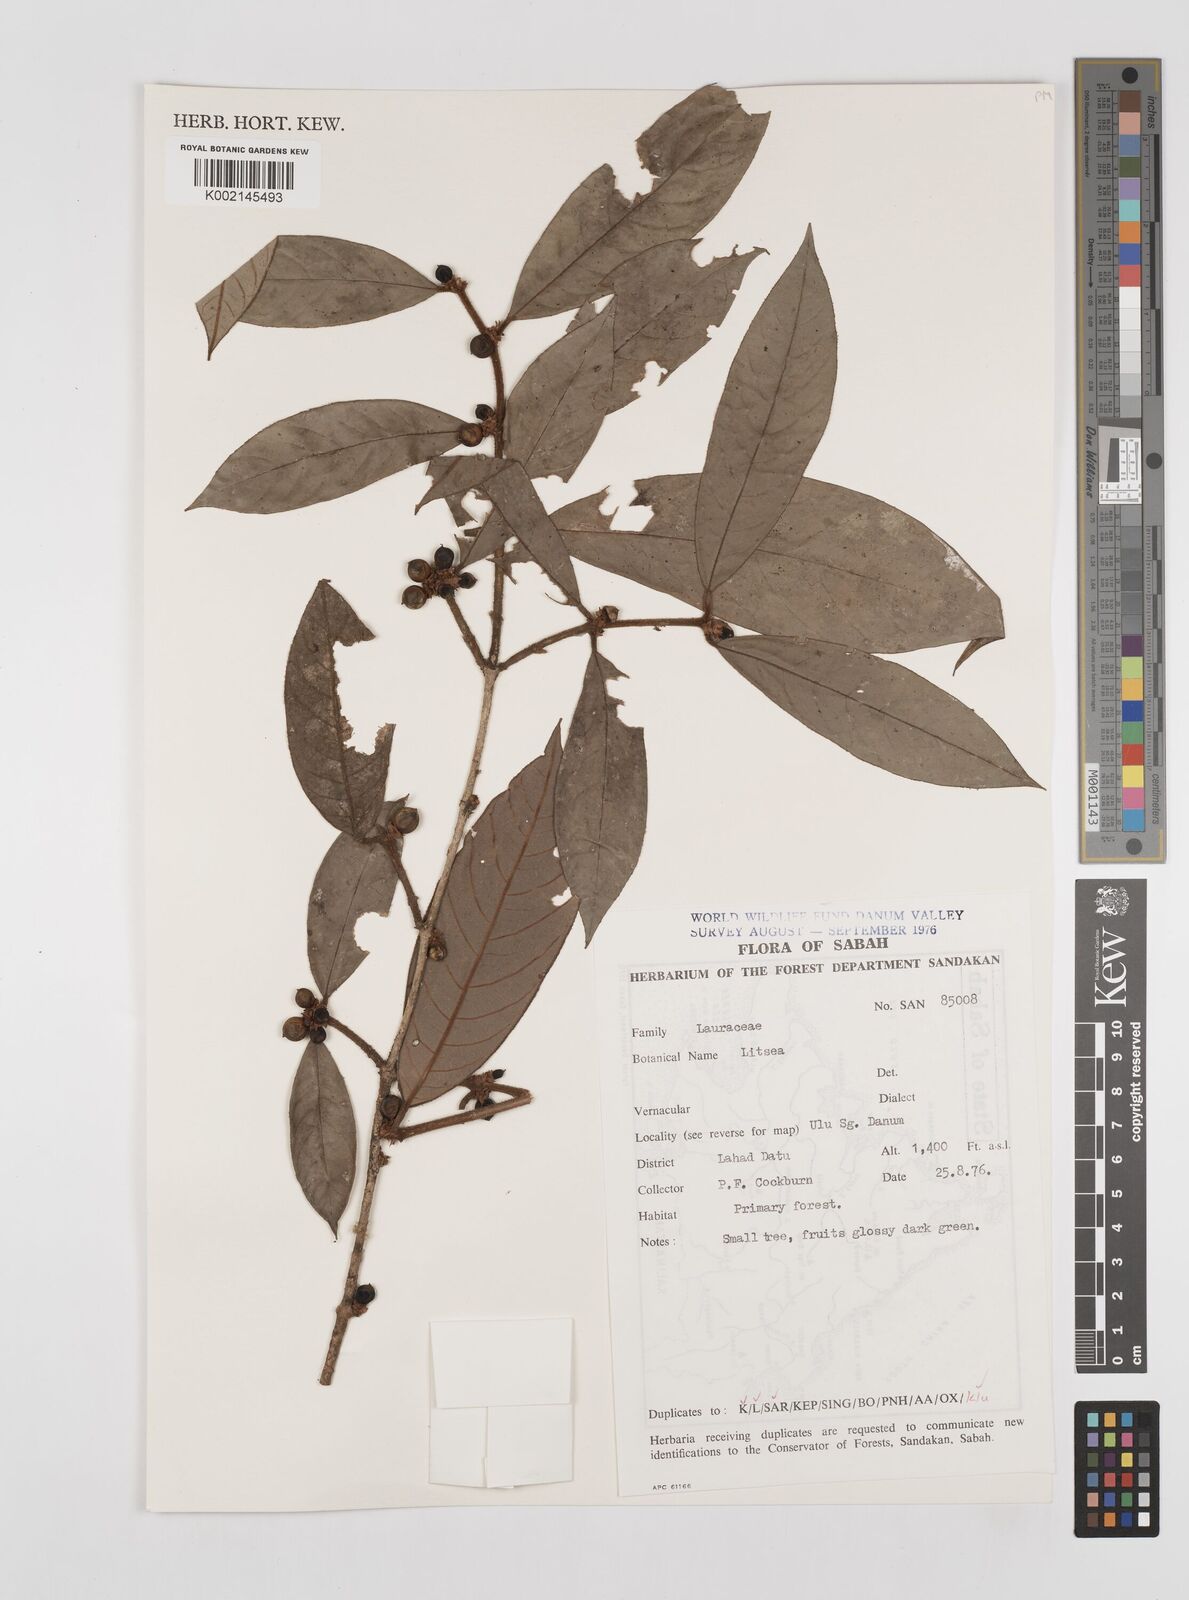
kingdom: Plantae
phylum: Tracheophyta
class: Magnoliopsida
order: Laurales
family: Lauraceae
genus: Litsea
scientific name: Litsea
